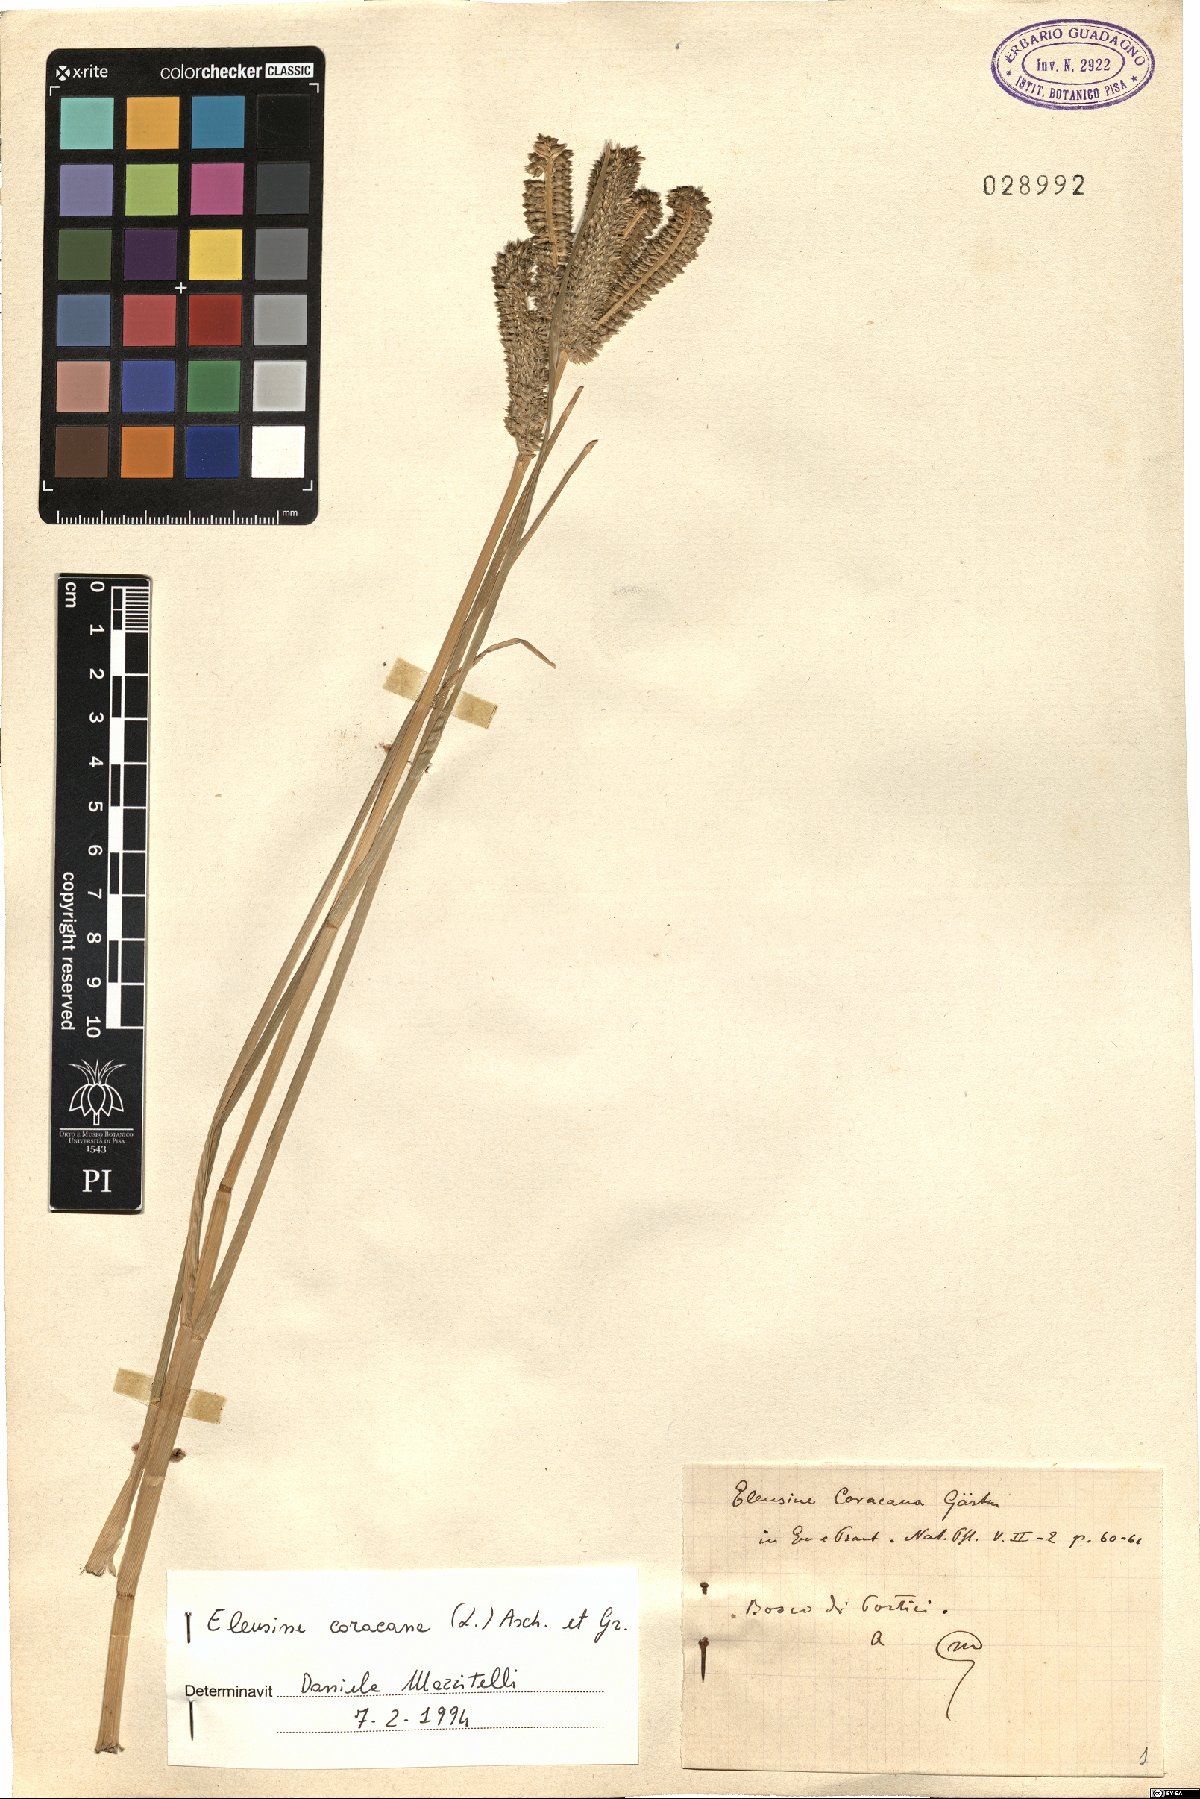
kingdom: Plantae
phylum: Tracheophyta
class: Liliopsida
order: Poales
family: Poaceae
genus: Eleusine
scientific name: Eleusine coracana
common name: Finger millet
